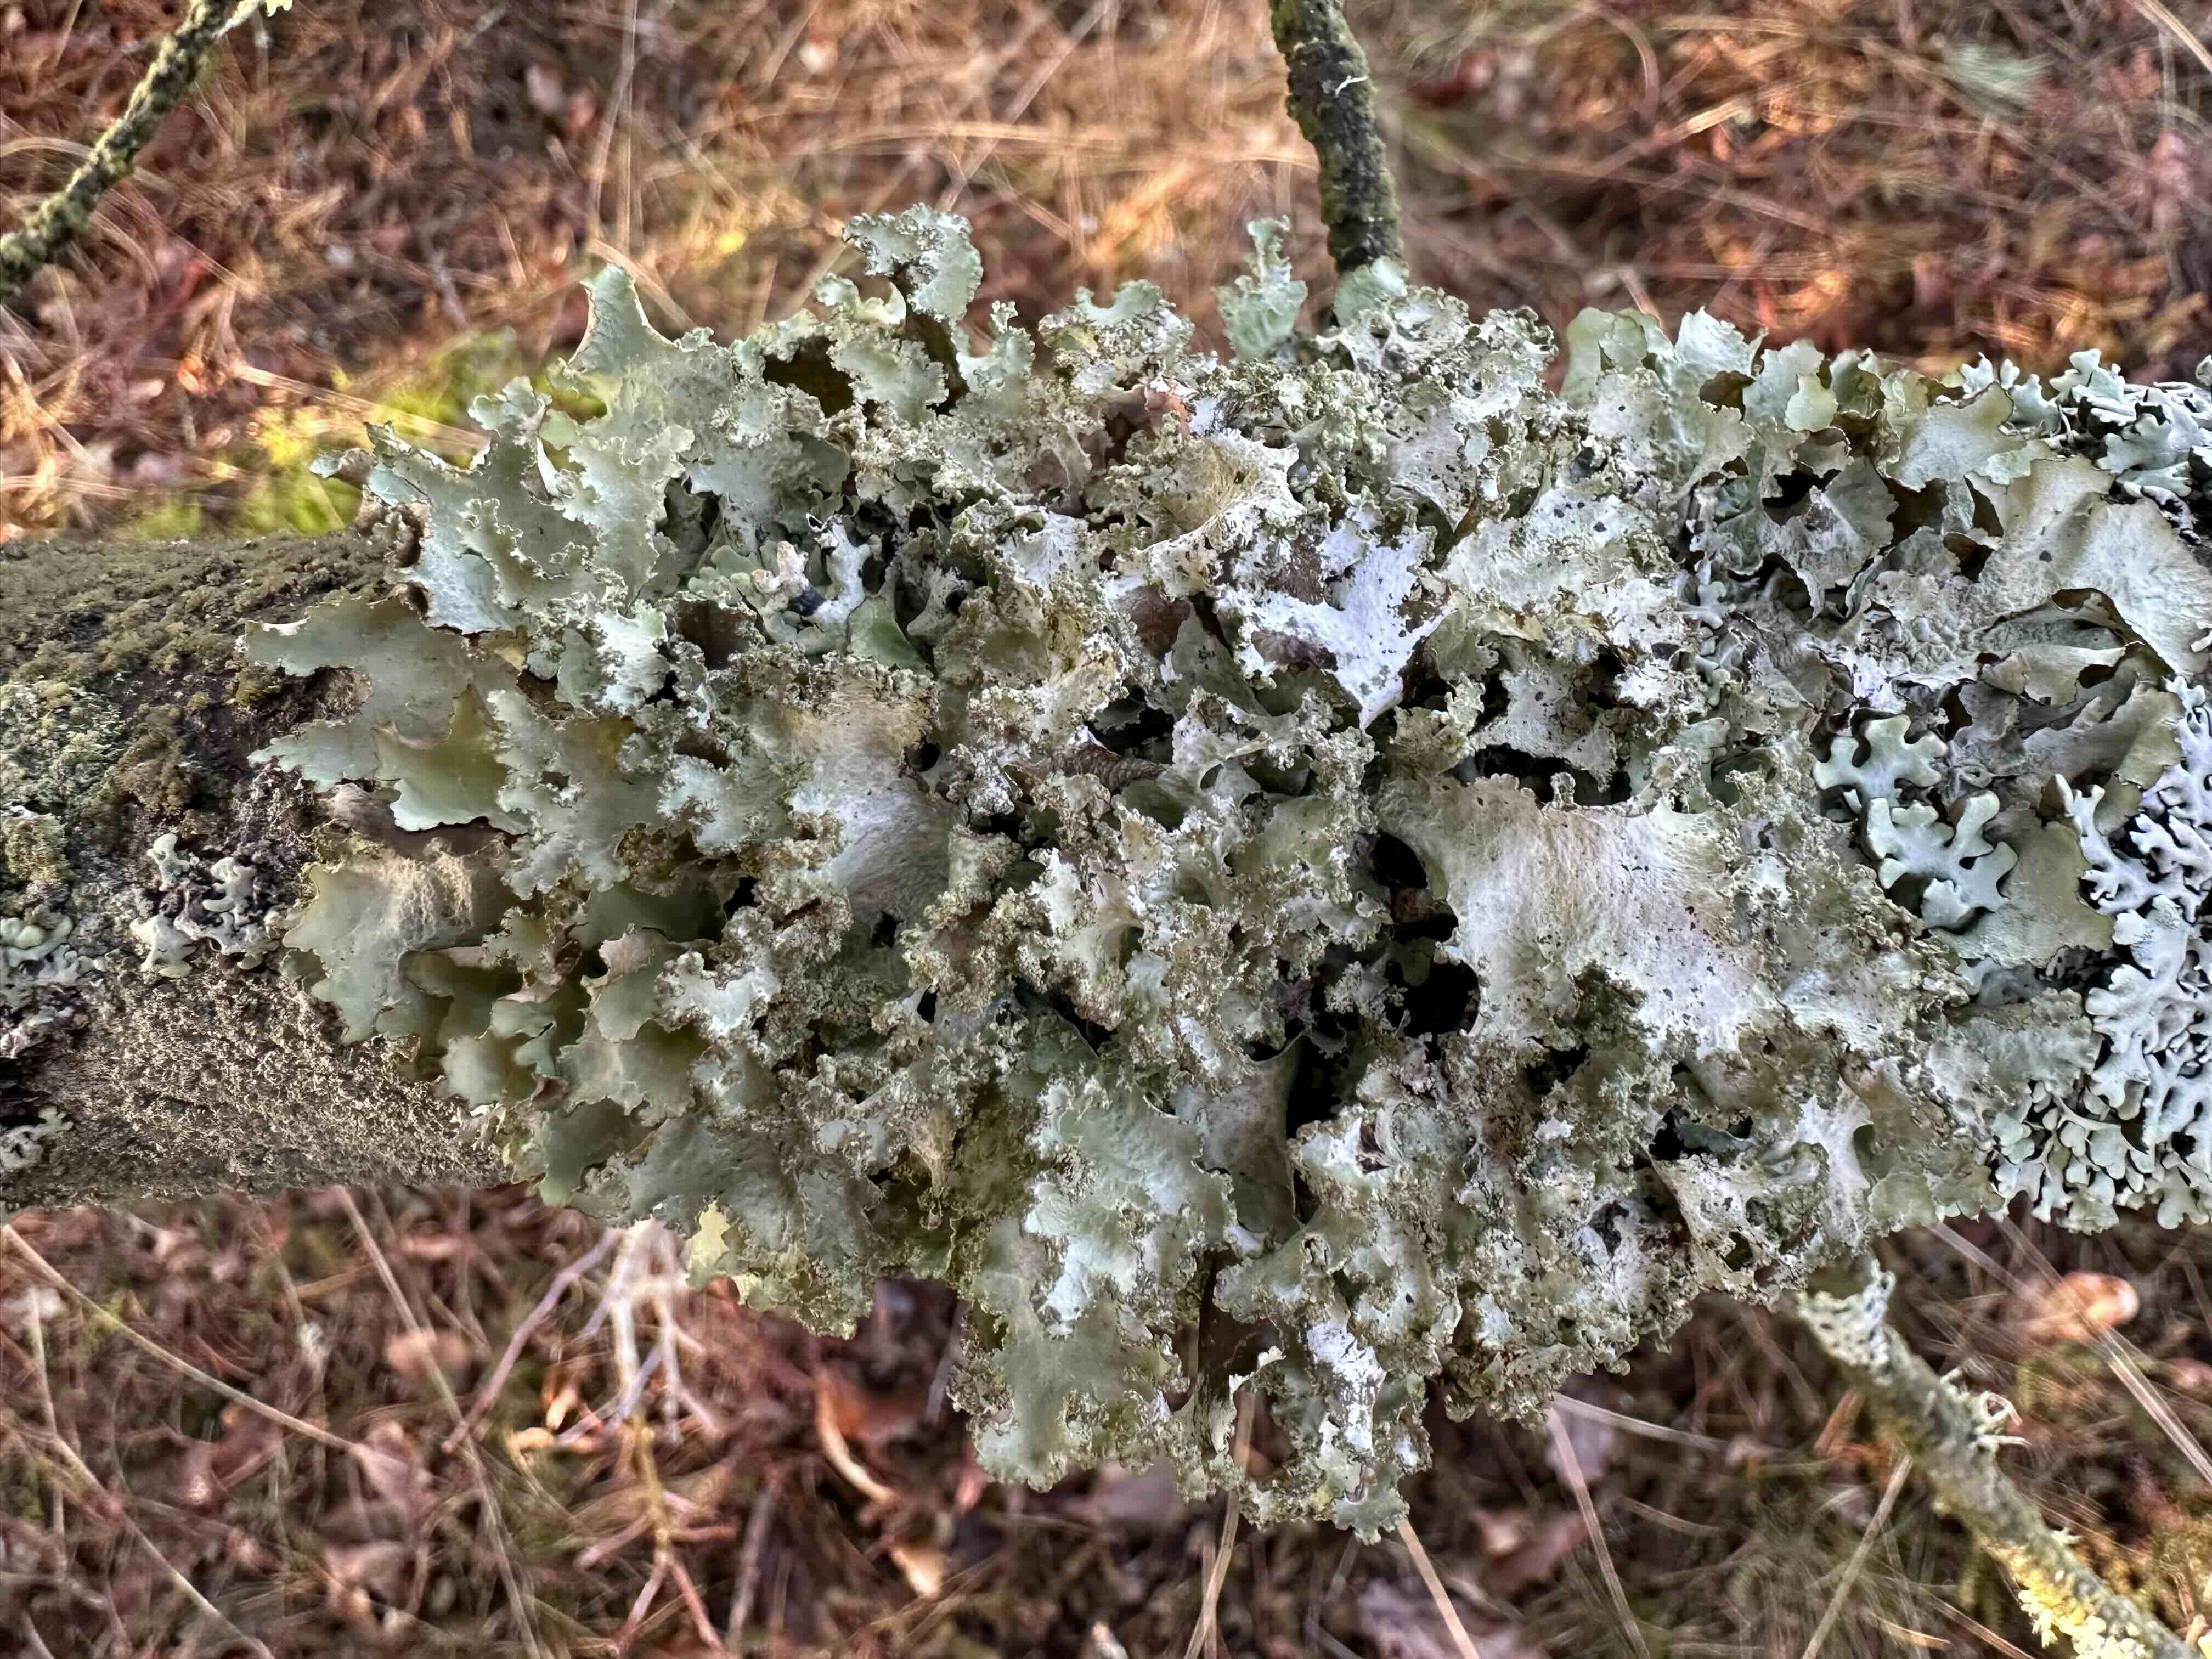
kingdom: Fungi
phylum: Ascomycota
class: Lecanoromycetes
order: Lecanorales
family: Parmeliaceae
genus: Platismatia
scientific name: Platismatia glauca
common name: blågrå papirlav
